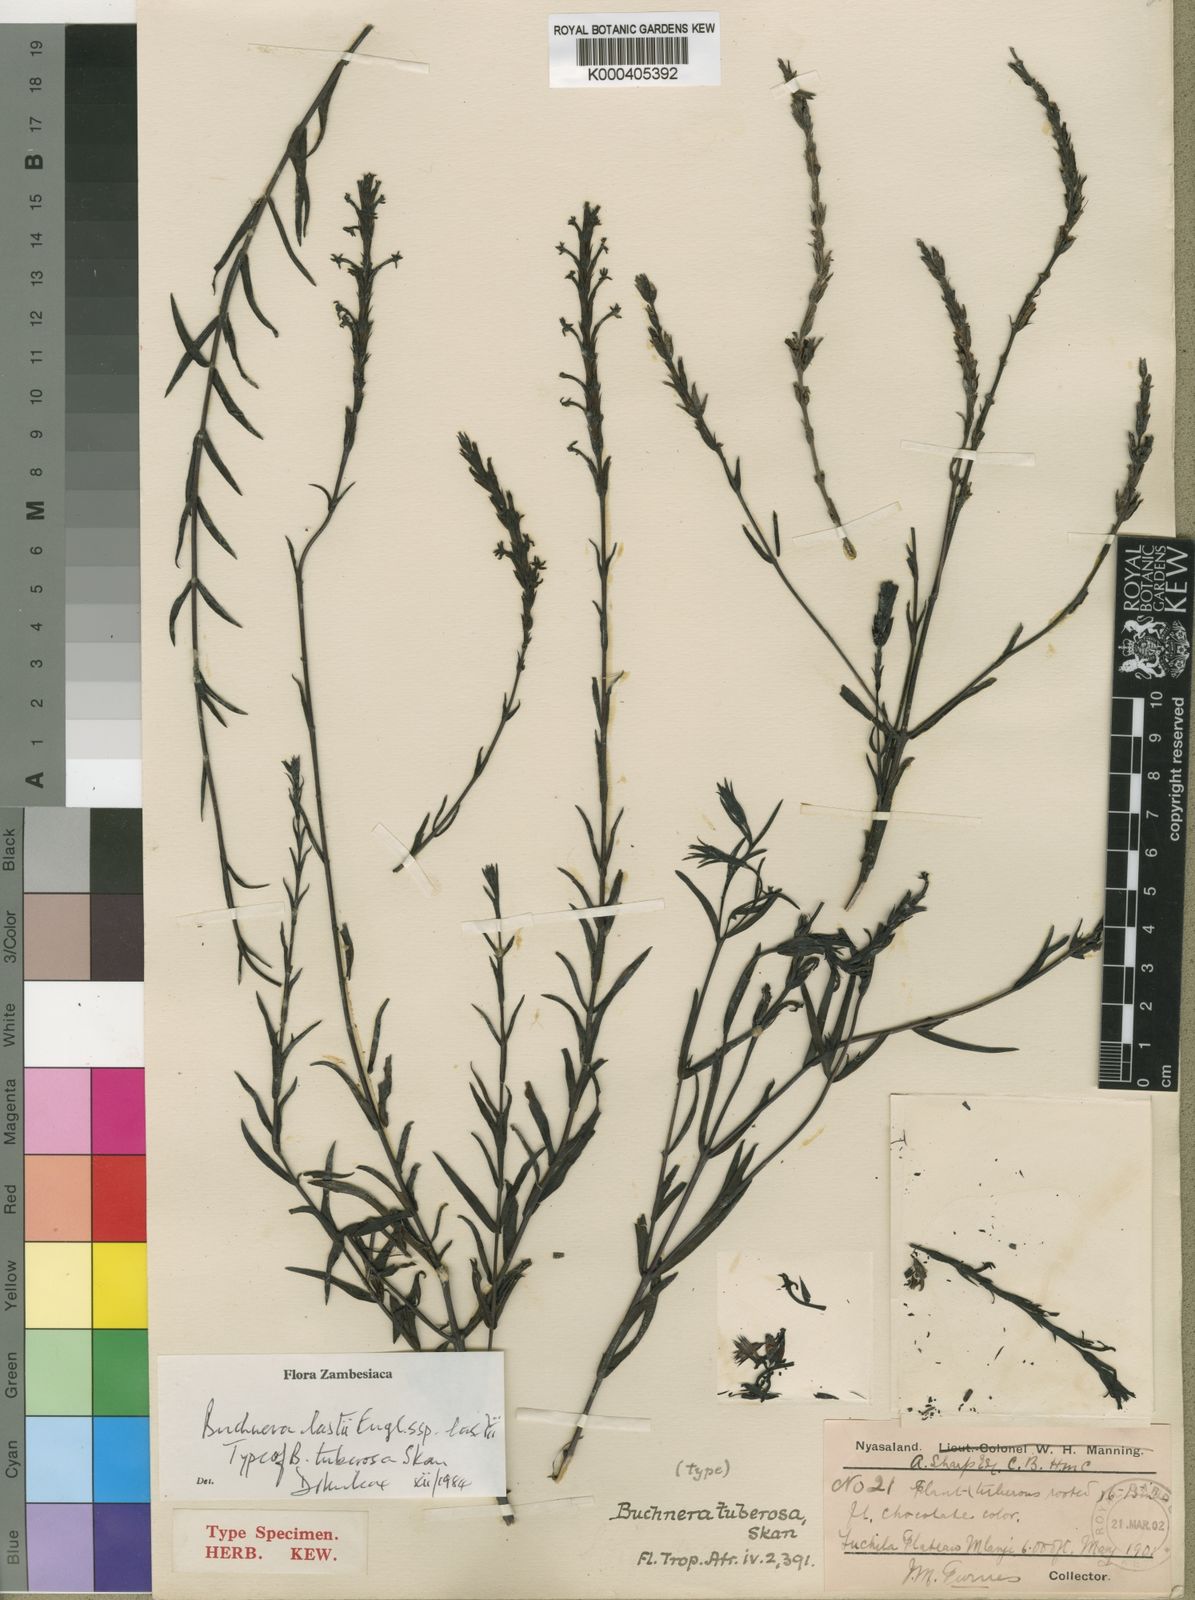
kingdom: Plantae
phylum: Tracheophyta
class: Magnoliopsida
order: Lamiales
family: Orobanchaceae
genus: Buchnera
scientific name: Buchnera lastii
